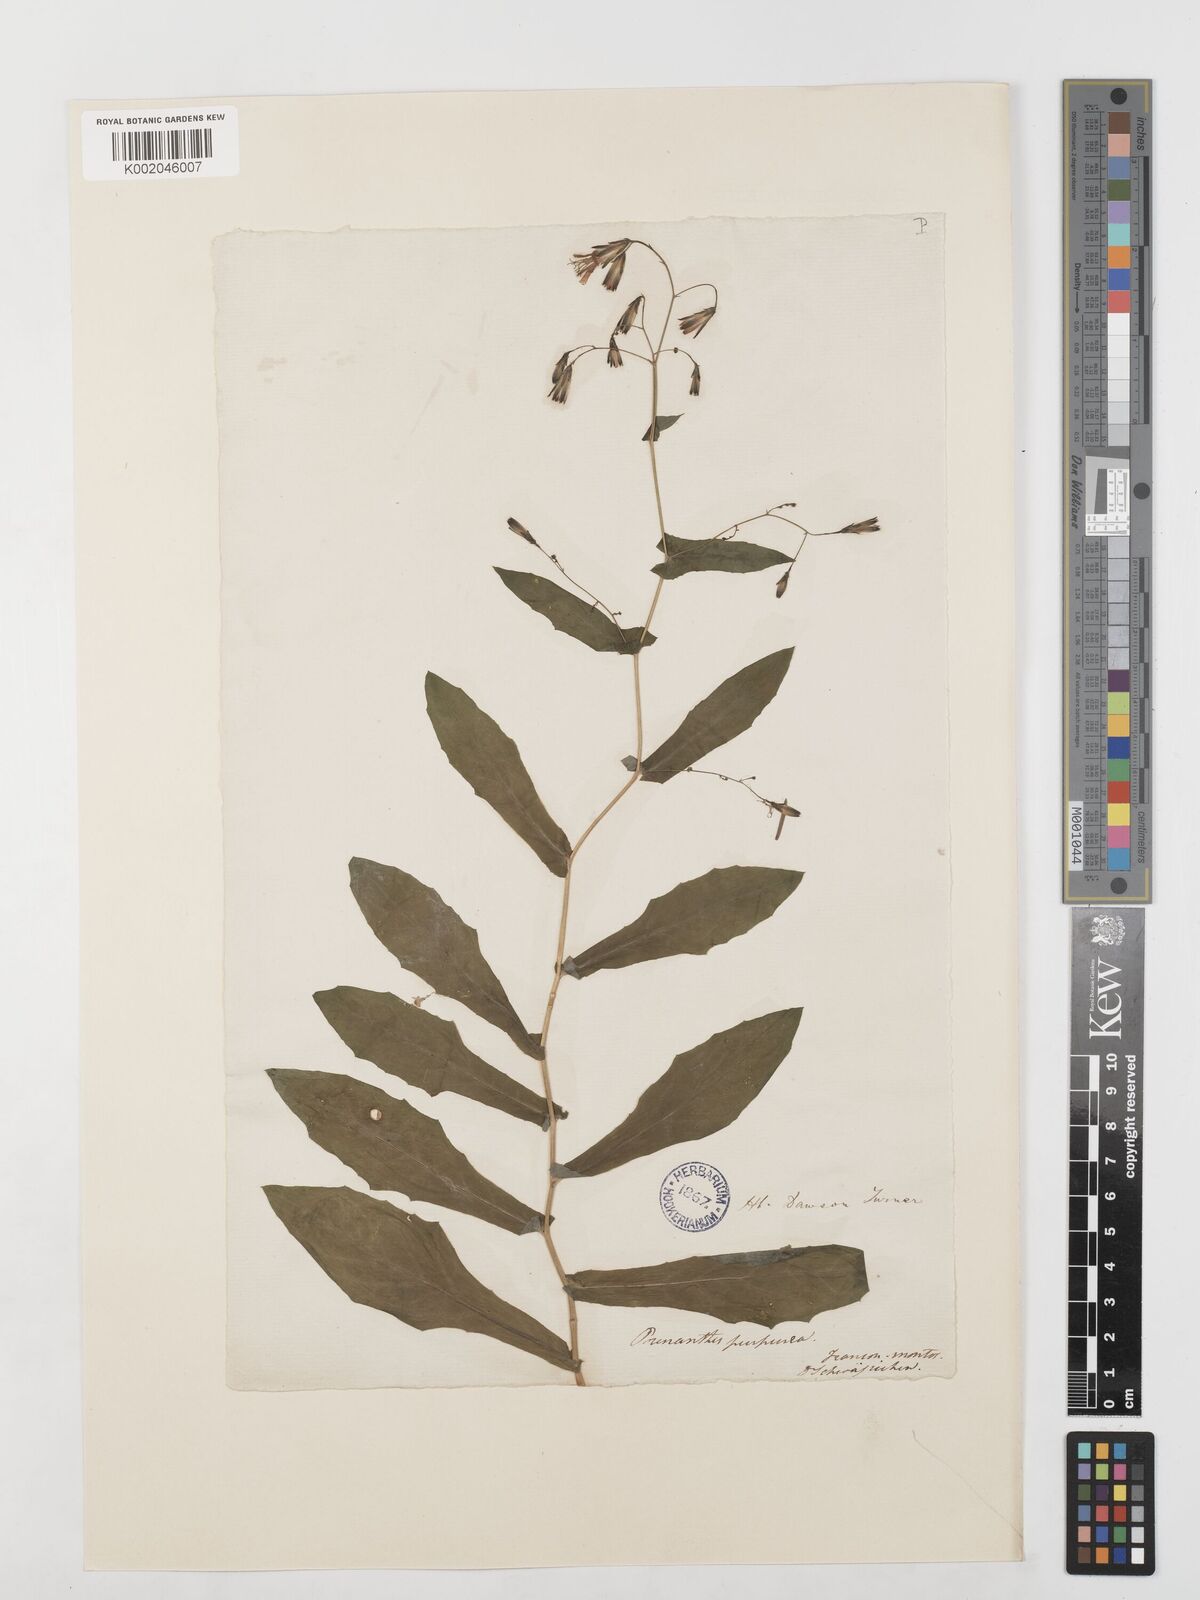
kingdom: Plantae
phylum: Tracheophyta
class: Magnoliopsida
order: Asterales
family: Asteraceae
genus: Prenanthes
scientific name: Prenanthes purpurea
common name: Purple lettuce
